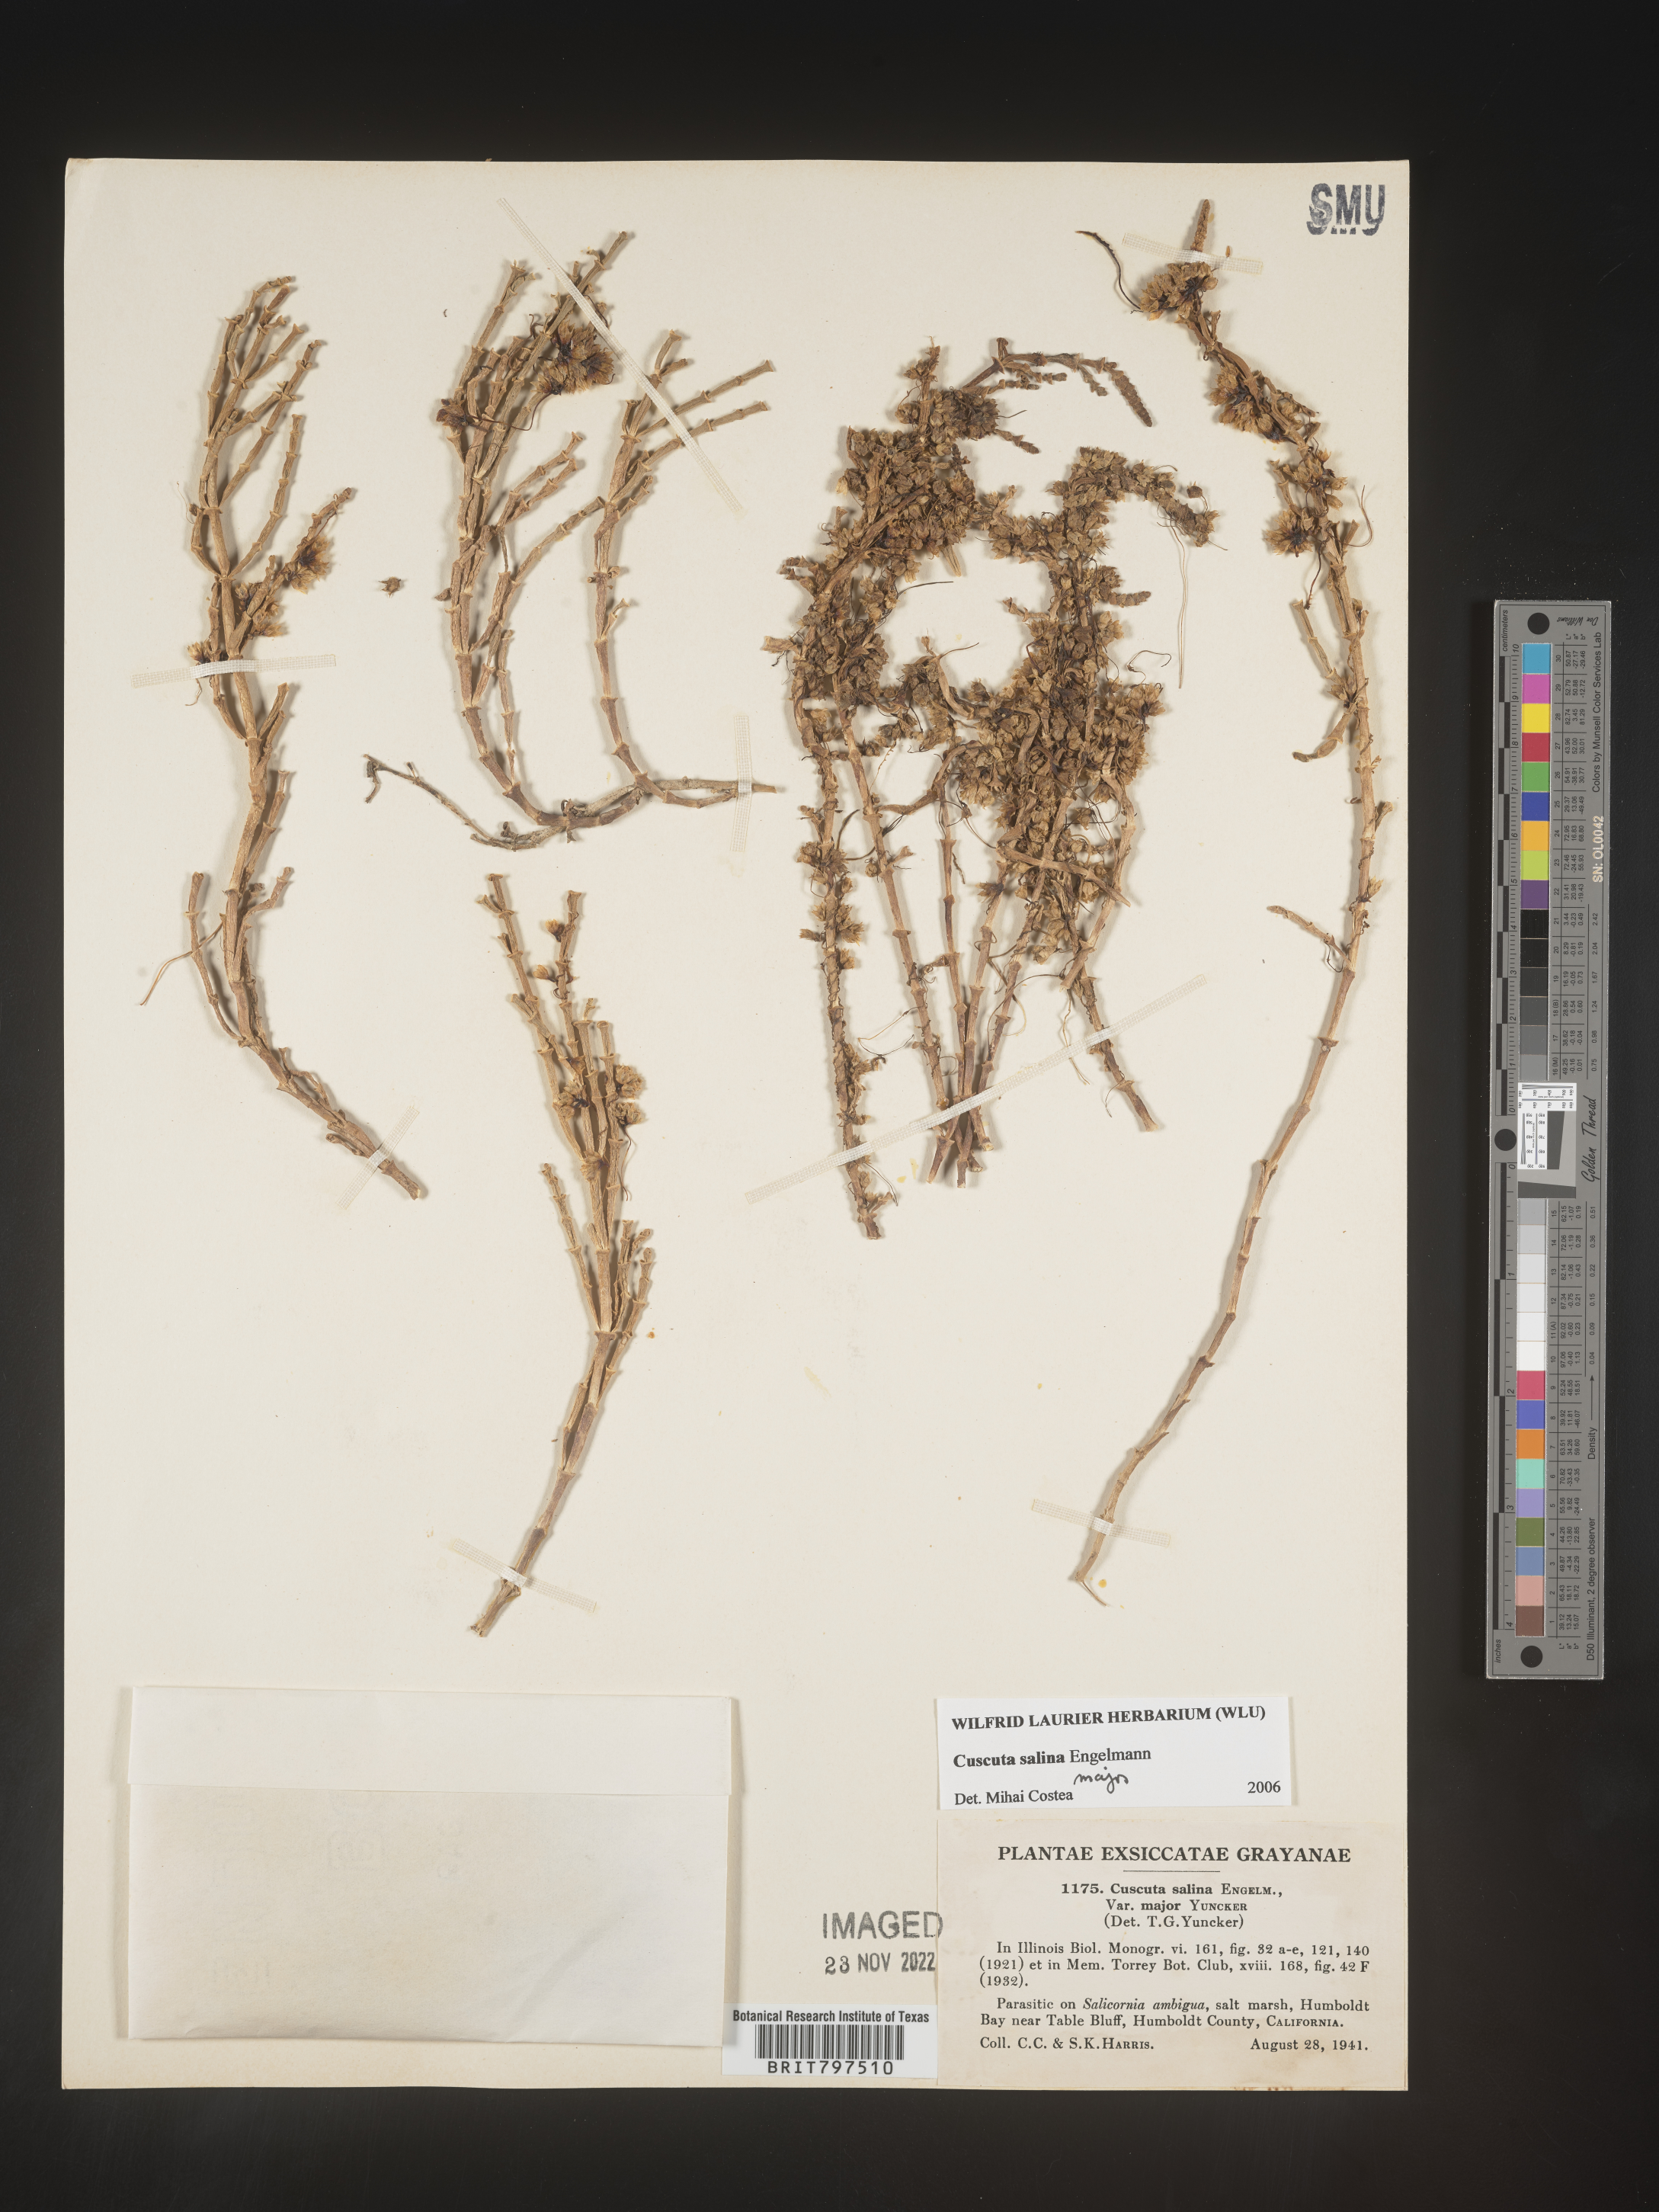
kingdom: Plantae
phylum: Tracheophyta
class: Magnoliopsida
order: Solanales
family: Convolvulaceae
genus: Cuscuta
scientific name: Cuscuta salina
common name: Goldenthread
